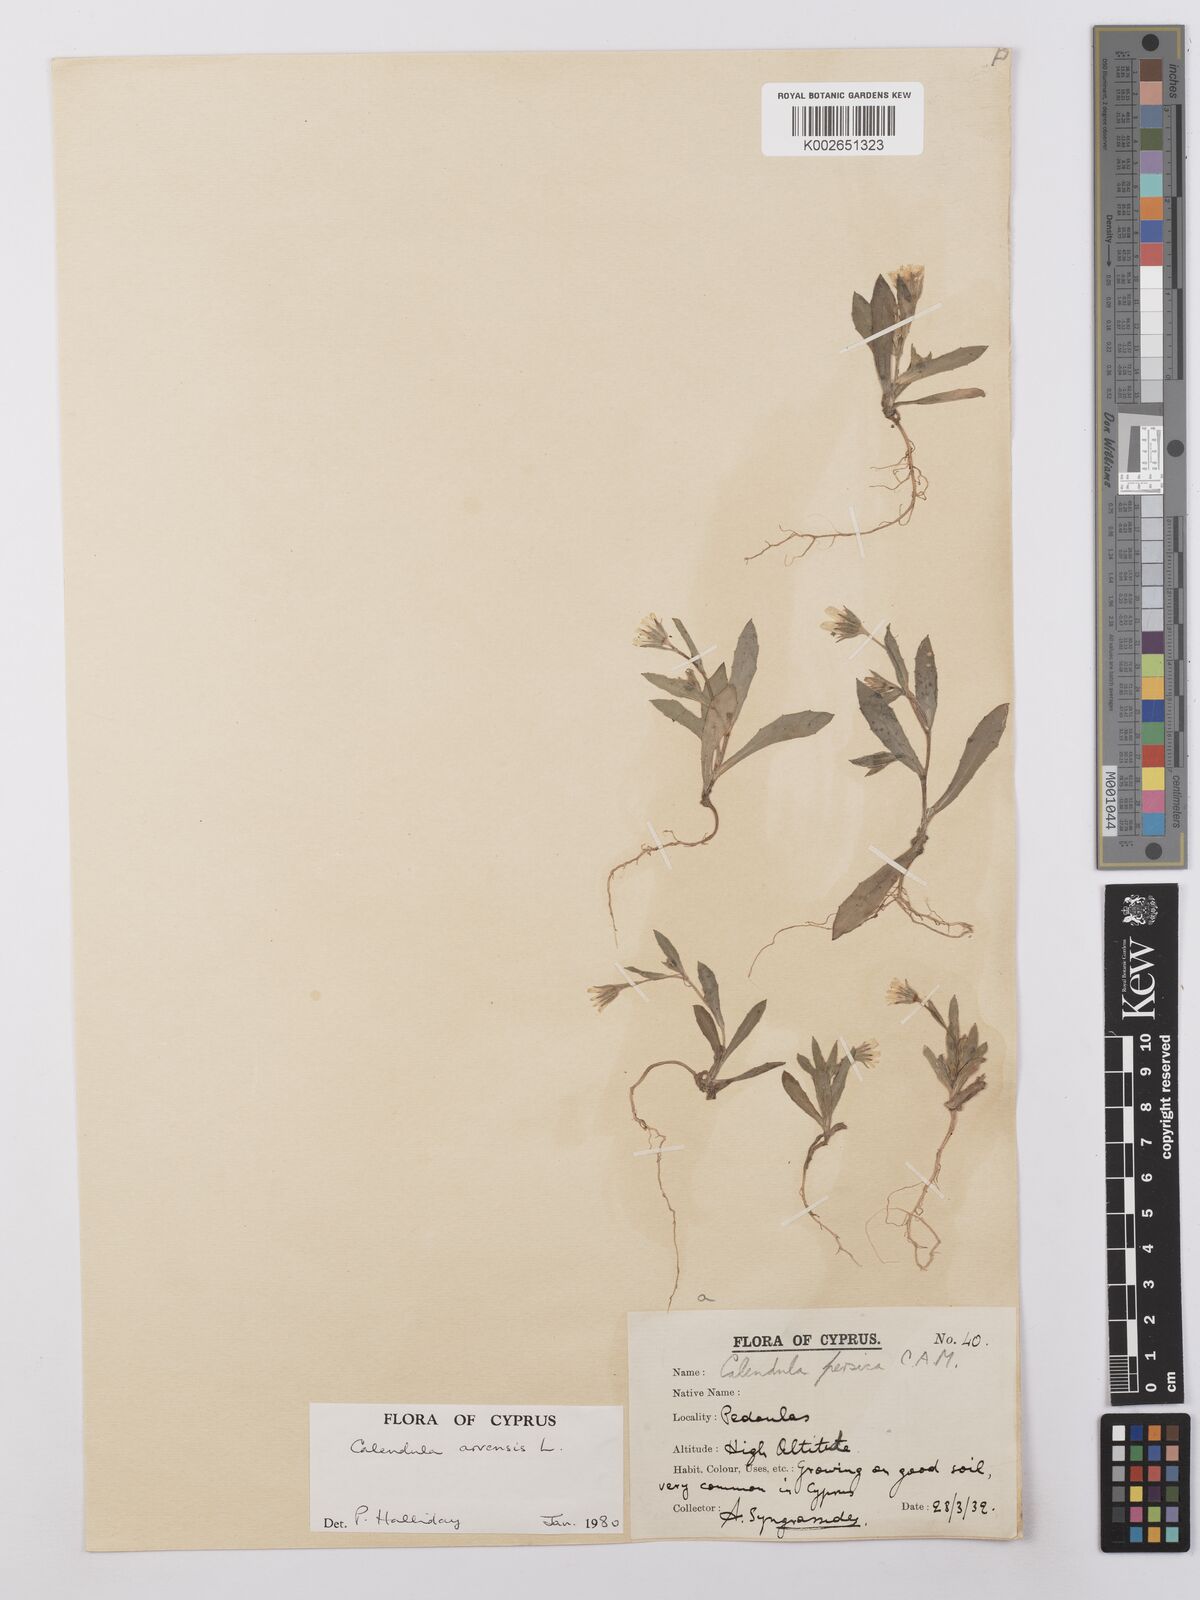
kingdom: Plantae
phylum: Tracheophyta
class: Magnoliopsida
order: Asterales
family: Asteraceae
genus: Calendula
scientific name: Calendula arvensis
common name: Field marigold
